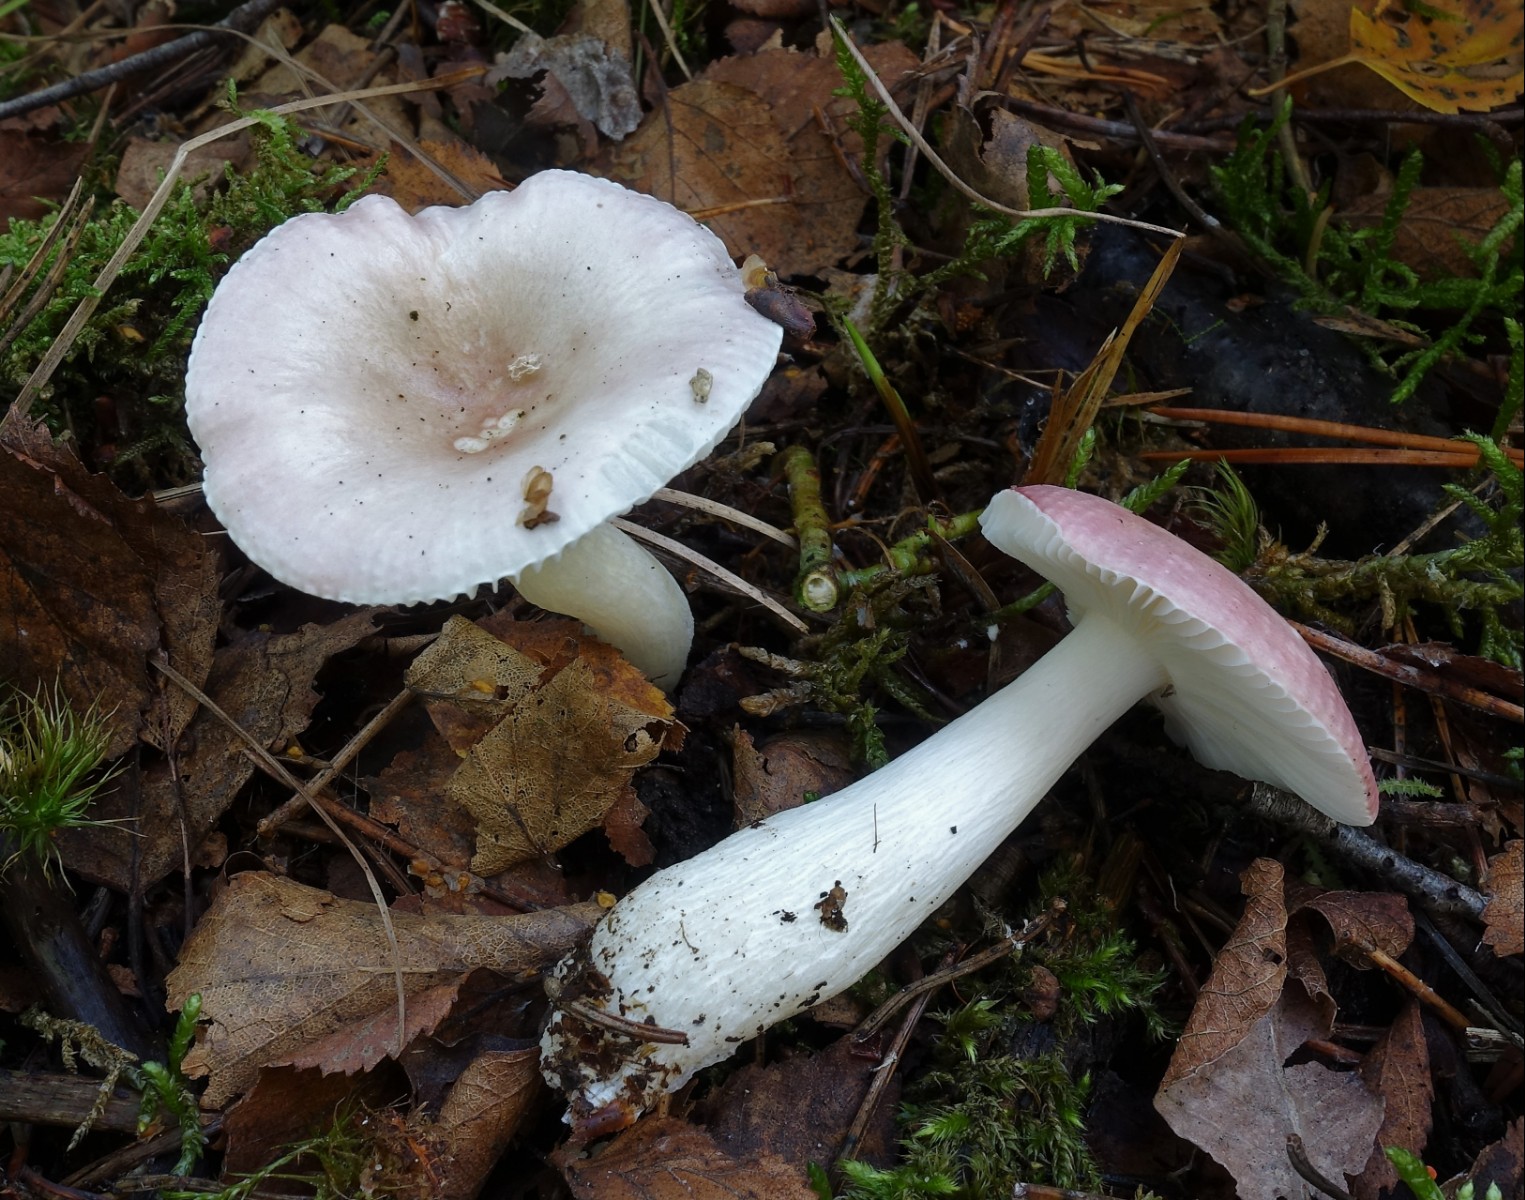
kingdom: Fungi
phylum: Basidiomycota
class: Agaricomycetes
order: Russulales
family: Russulaceae
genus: Russula
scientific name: Russula betularum
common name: bleg gift-skørhat
